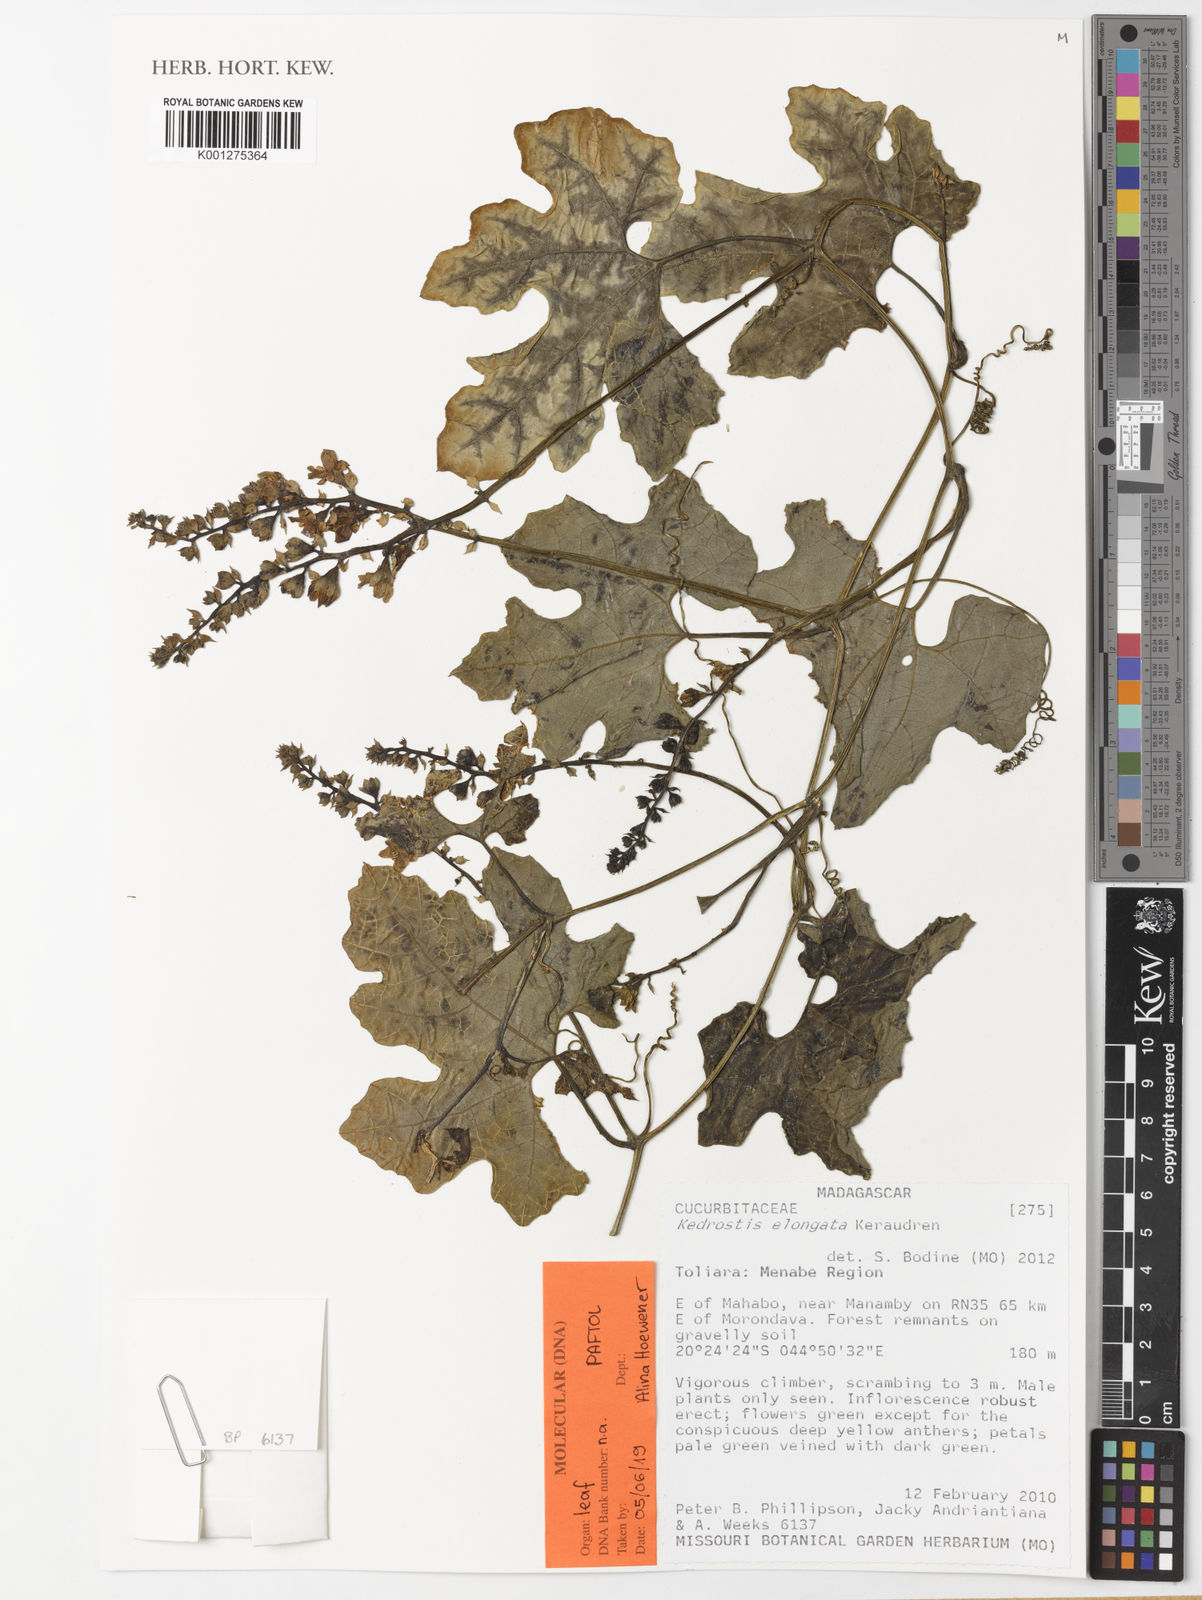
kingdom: Plantae
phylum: Tracheophyta
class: Magnoliopsida
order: Cucurbitales
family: Cucurbitaceae
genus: Kedrostis
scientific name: Kedrostis elongata
